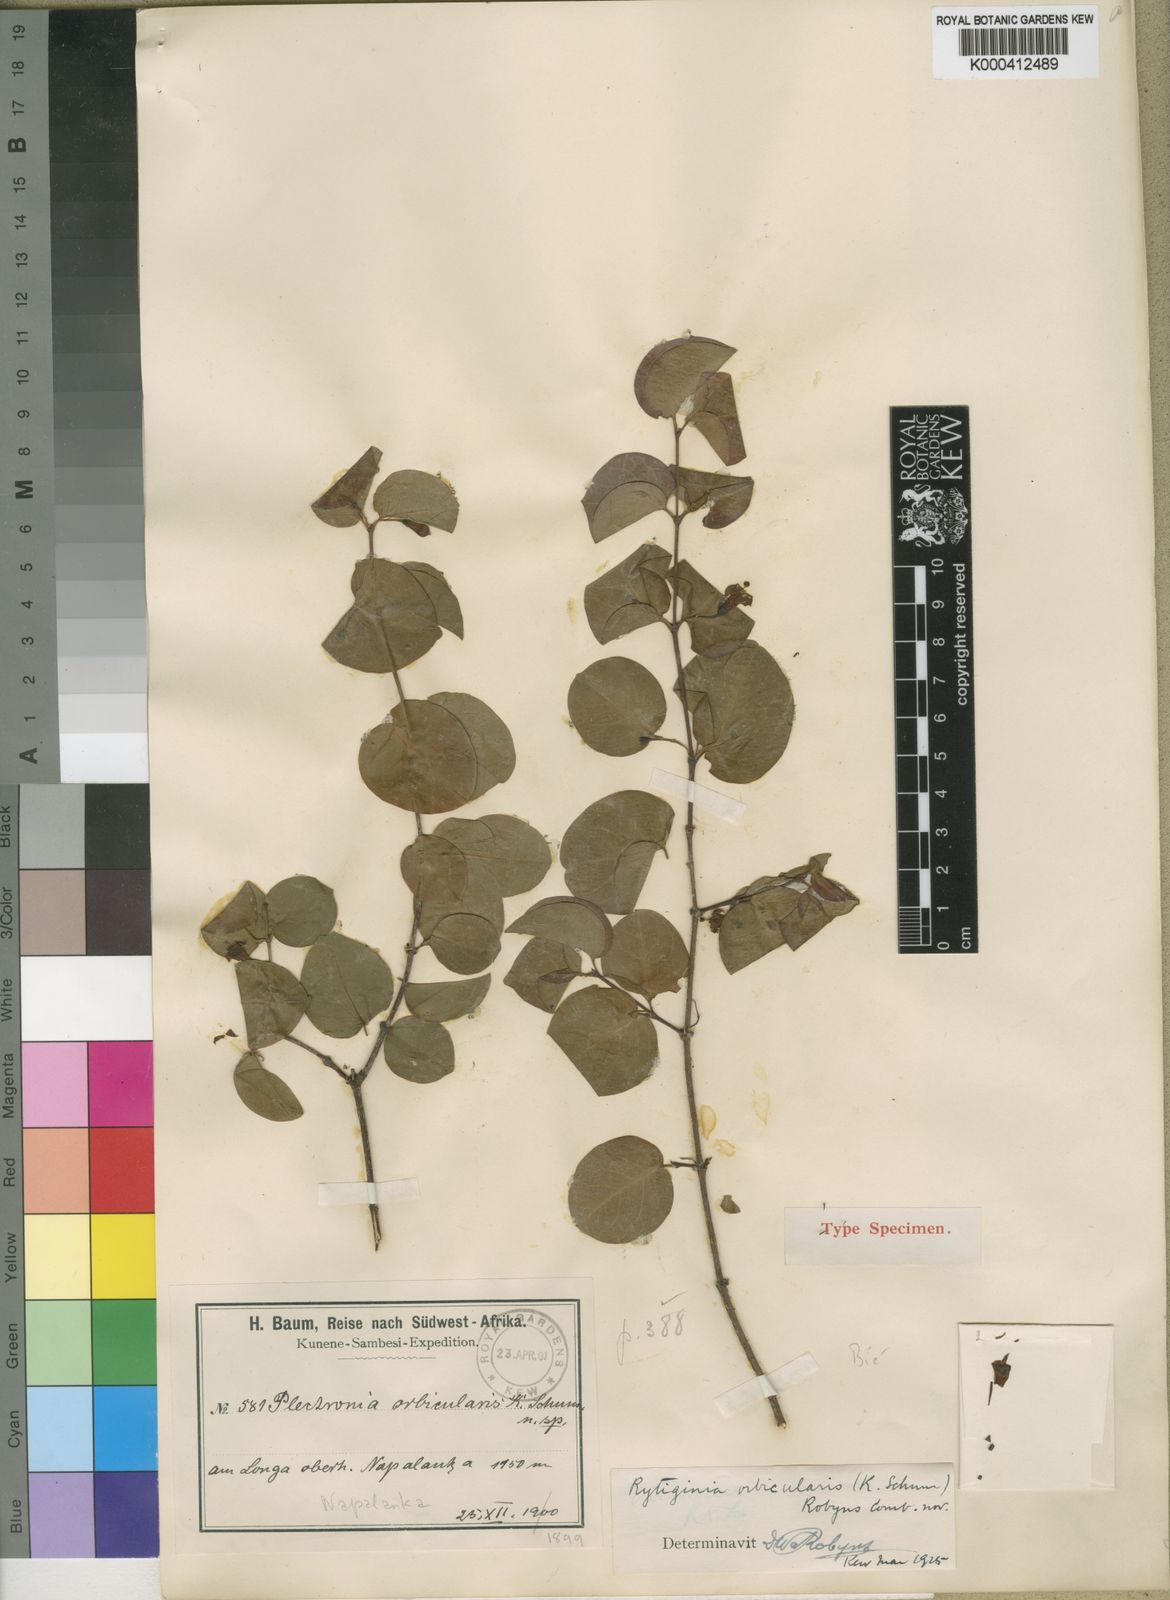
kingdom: Plantae
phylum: Tracheophyta
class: Magnoliopsida
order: Gentianales
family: Rubiaceae
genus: Rytigynia
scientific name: Rytigynia orbicularis
